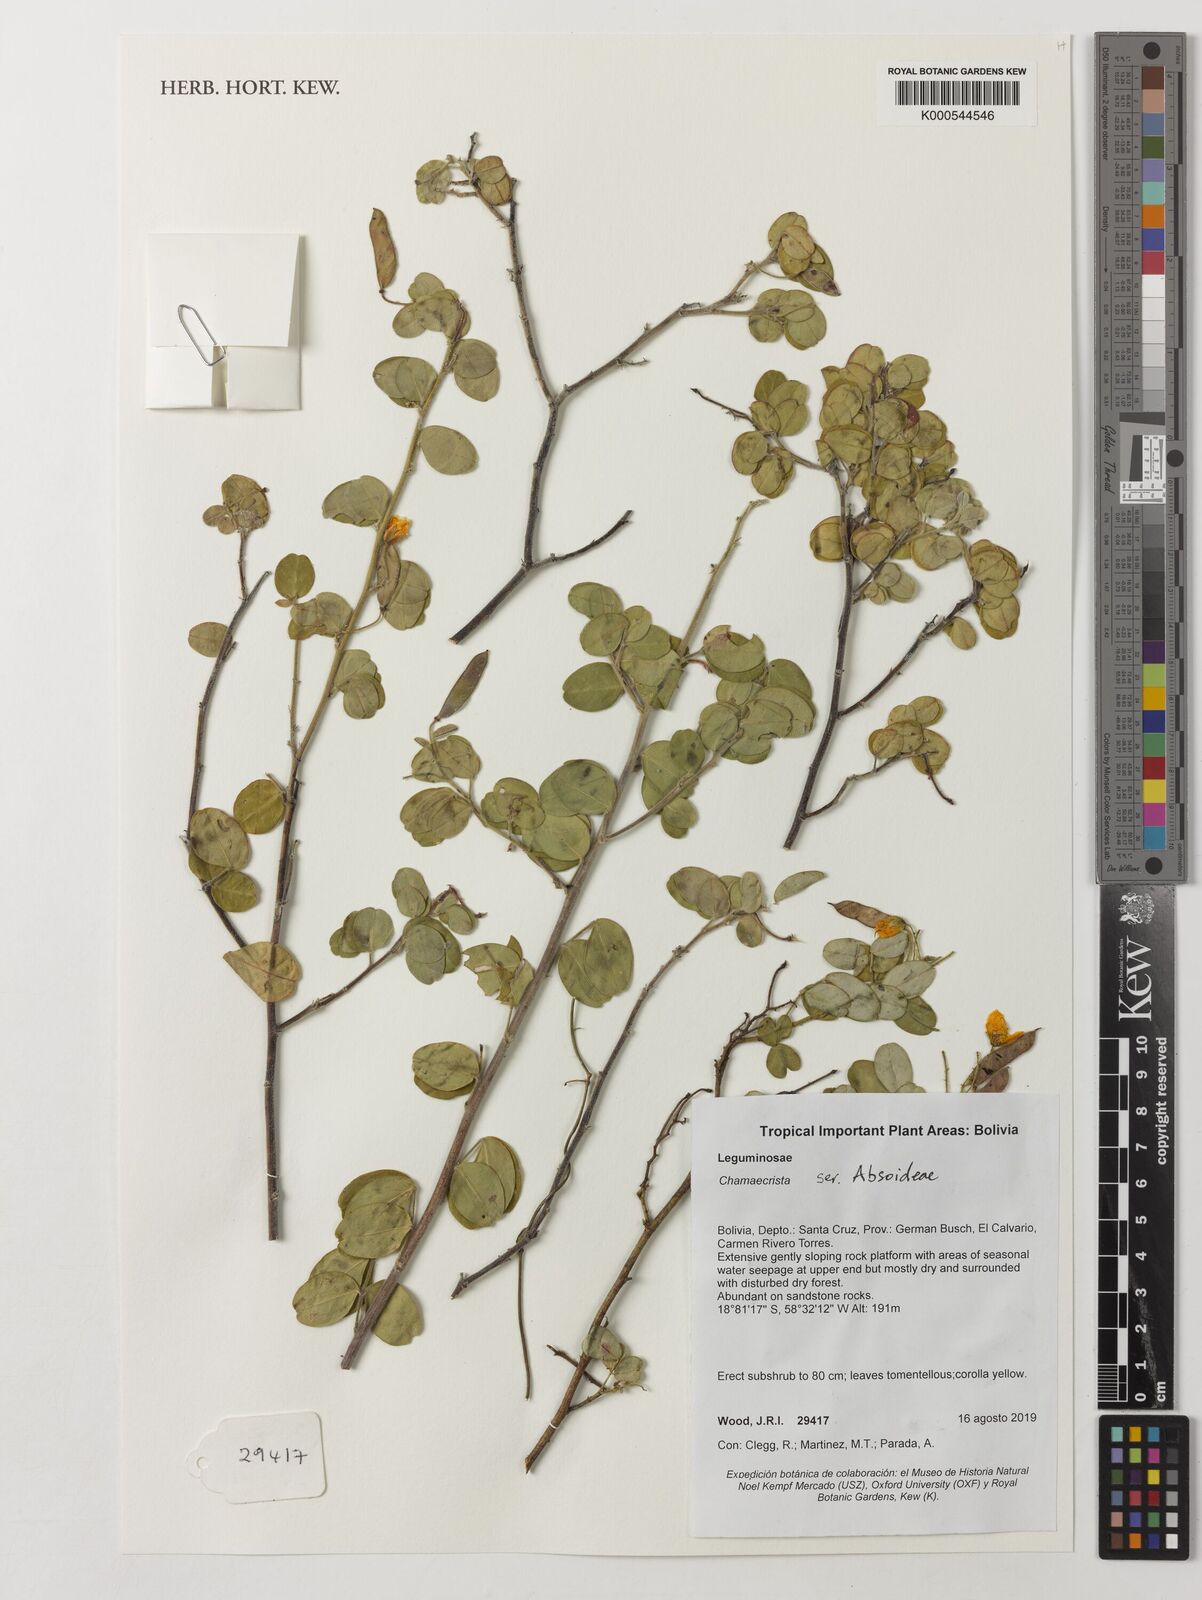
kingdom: Plantae
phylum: Tracheophyta
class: Magnoliopsida
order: Fabales
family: Fabaceae
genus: Chamaecrista
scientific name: Chamaecrista
